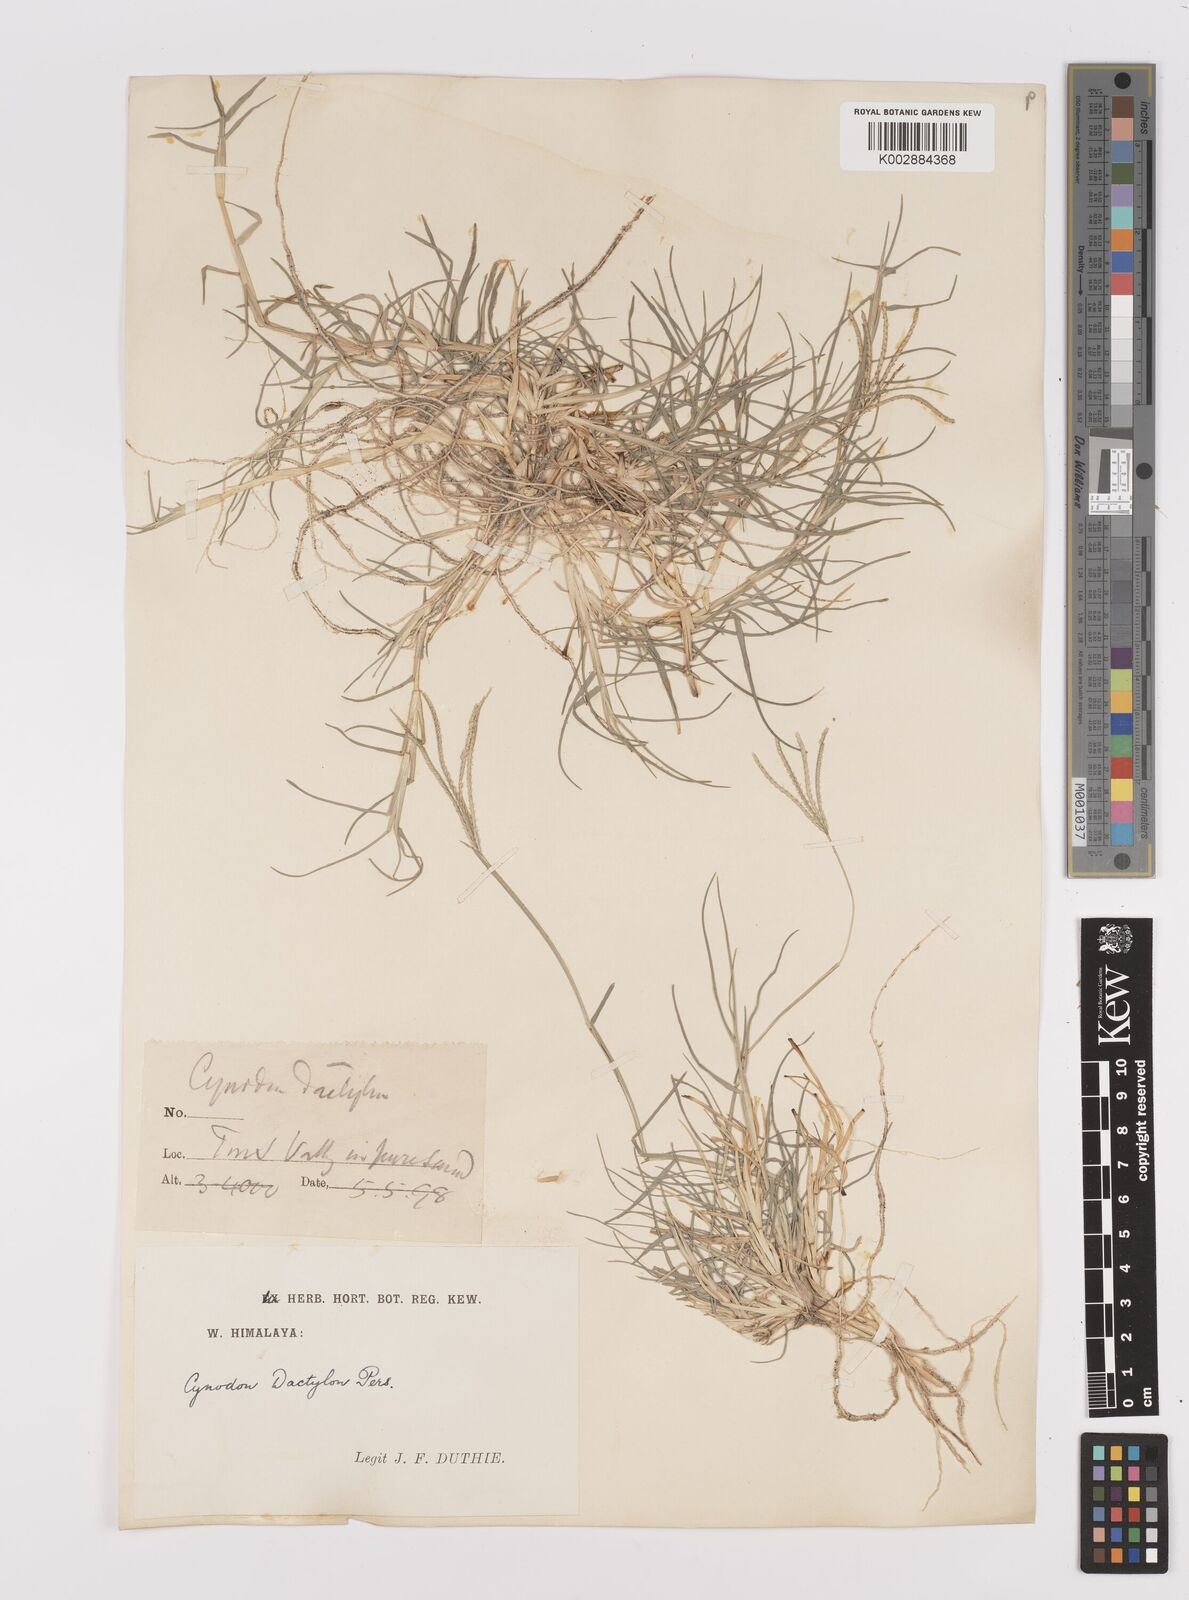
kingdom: Plantae
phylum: Tracheophyta
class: Liliopsida
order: Poales
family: Poaceae
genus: Cynodon
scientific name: Cynodon dactylon
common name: Bermuda grass
